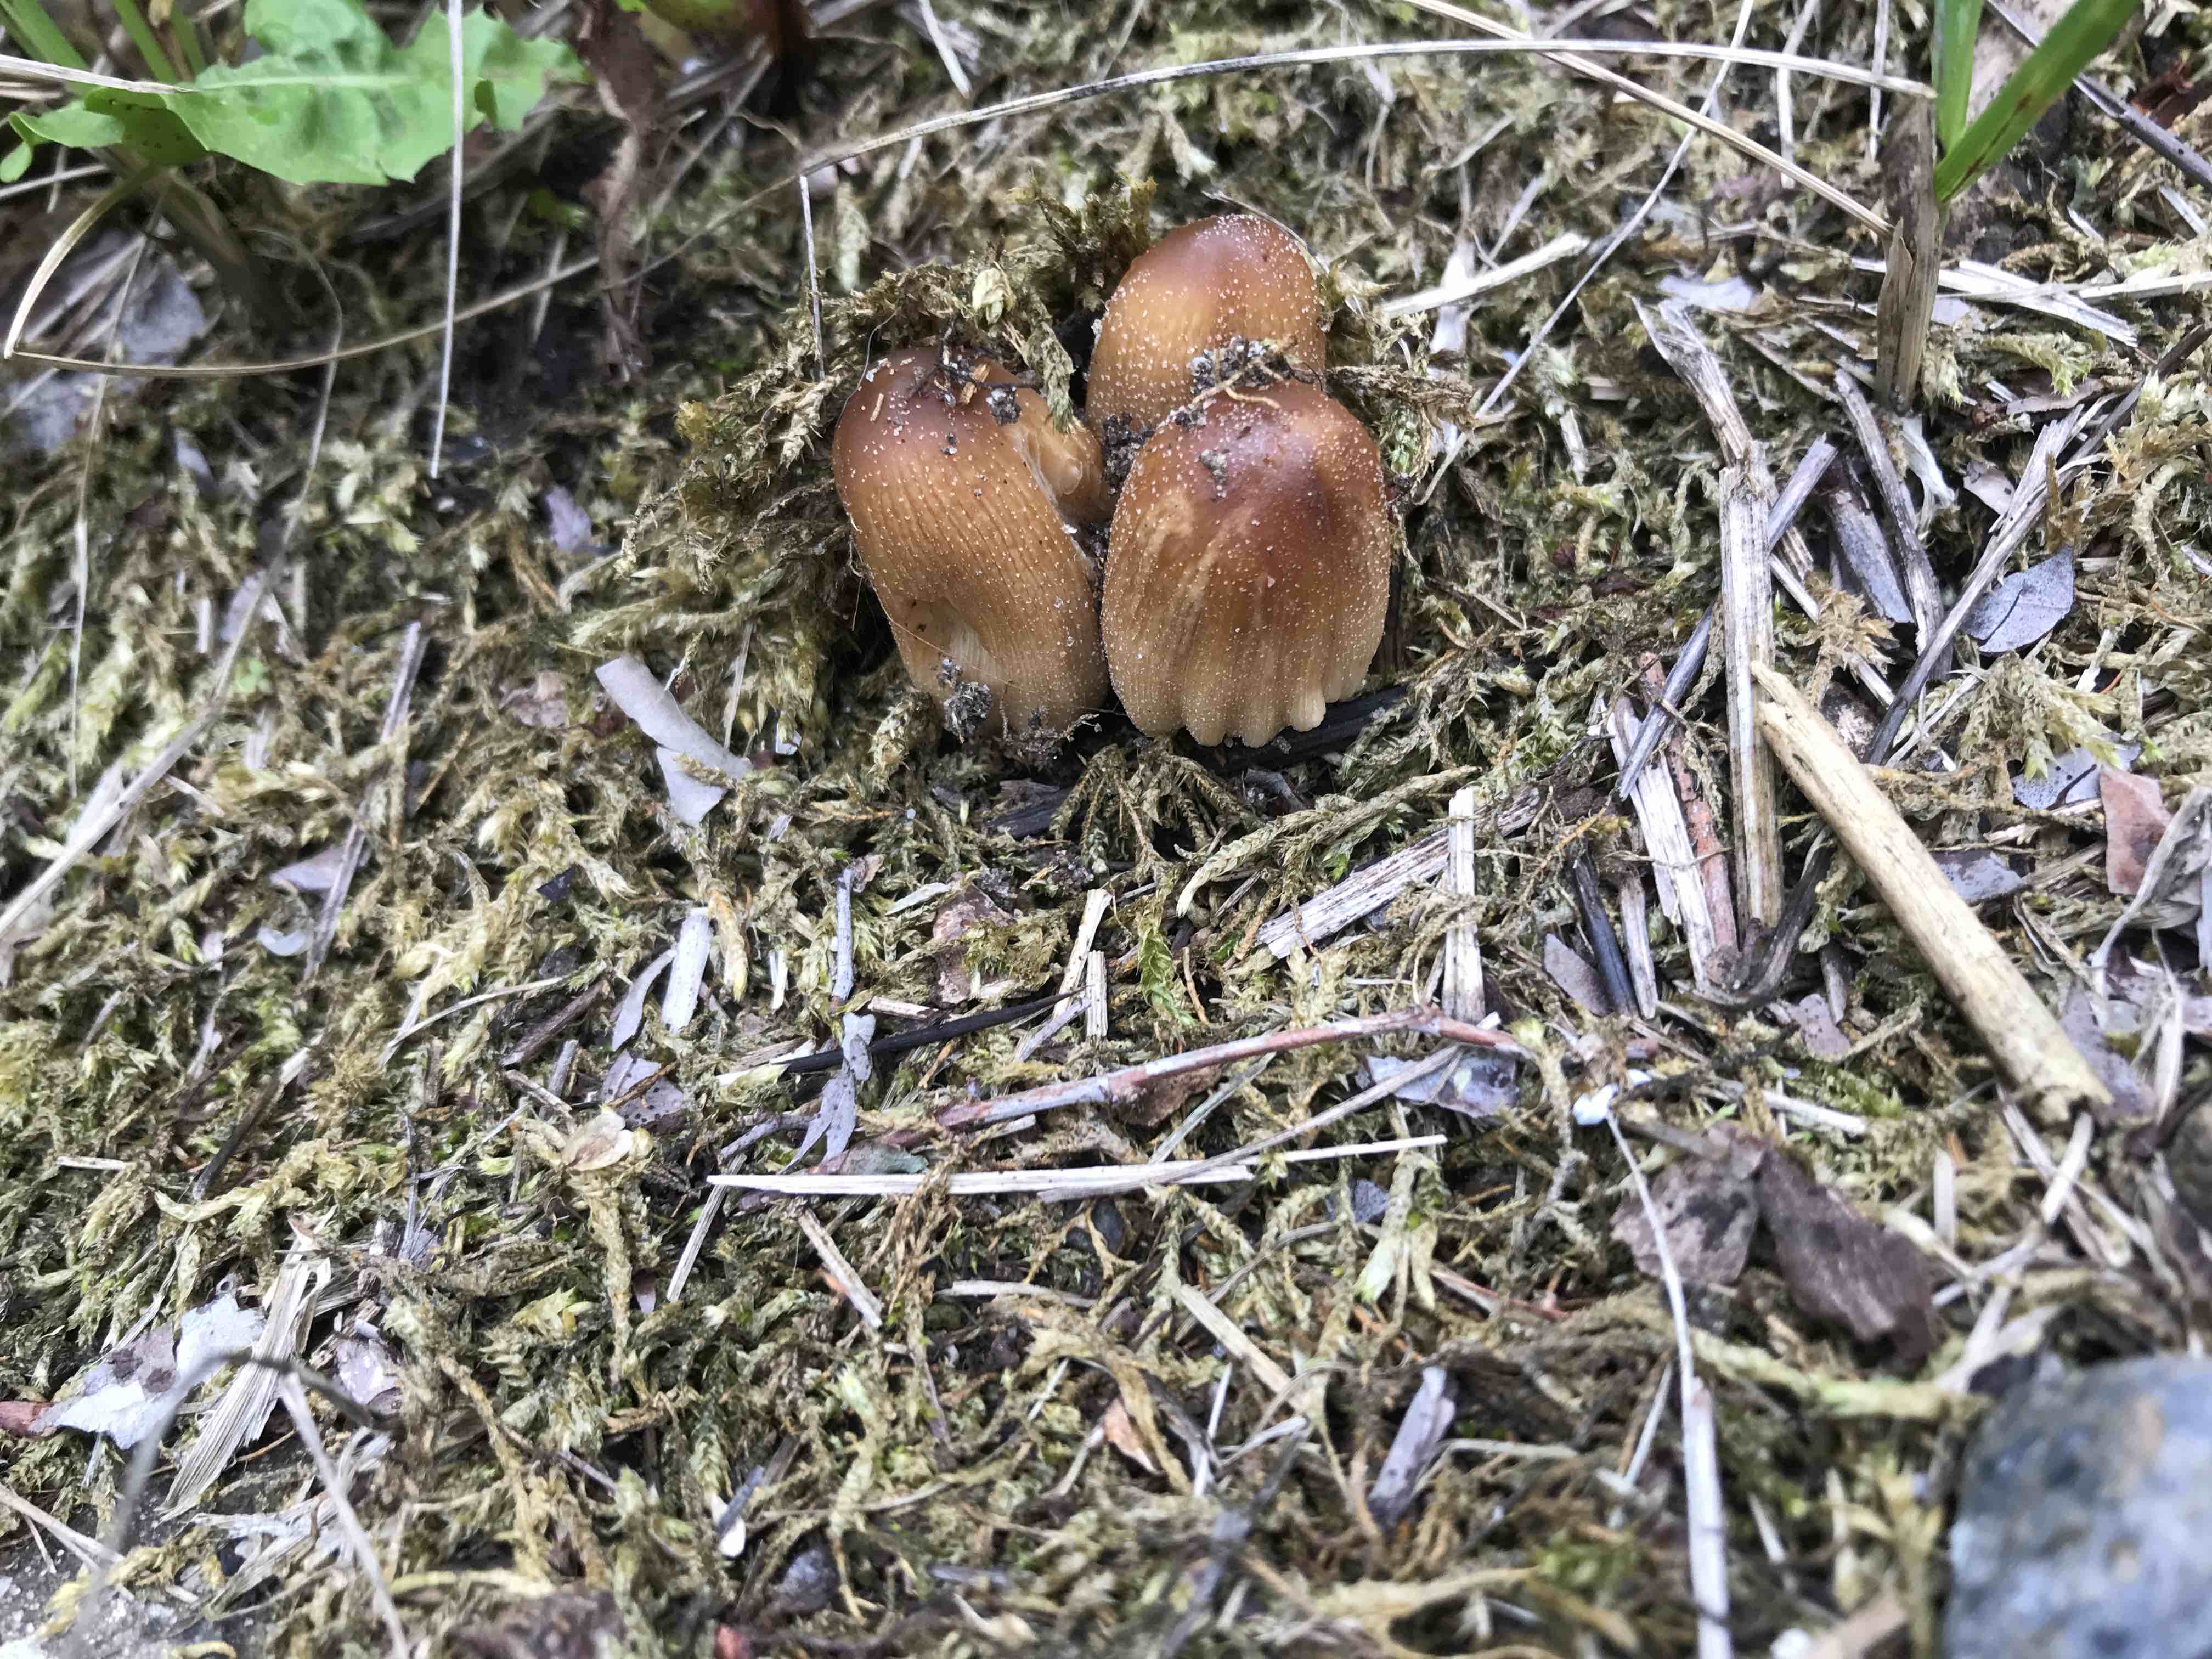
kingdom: Fungi
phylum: Basidiomycota
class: Agaricomycetes
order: Agaricales
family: Psathyrellaceae
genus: Coprinellus
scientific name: Coprinellus
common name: blækhat
